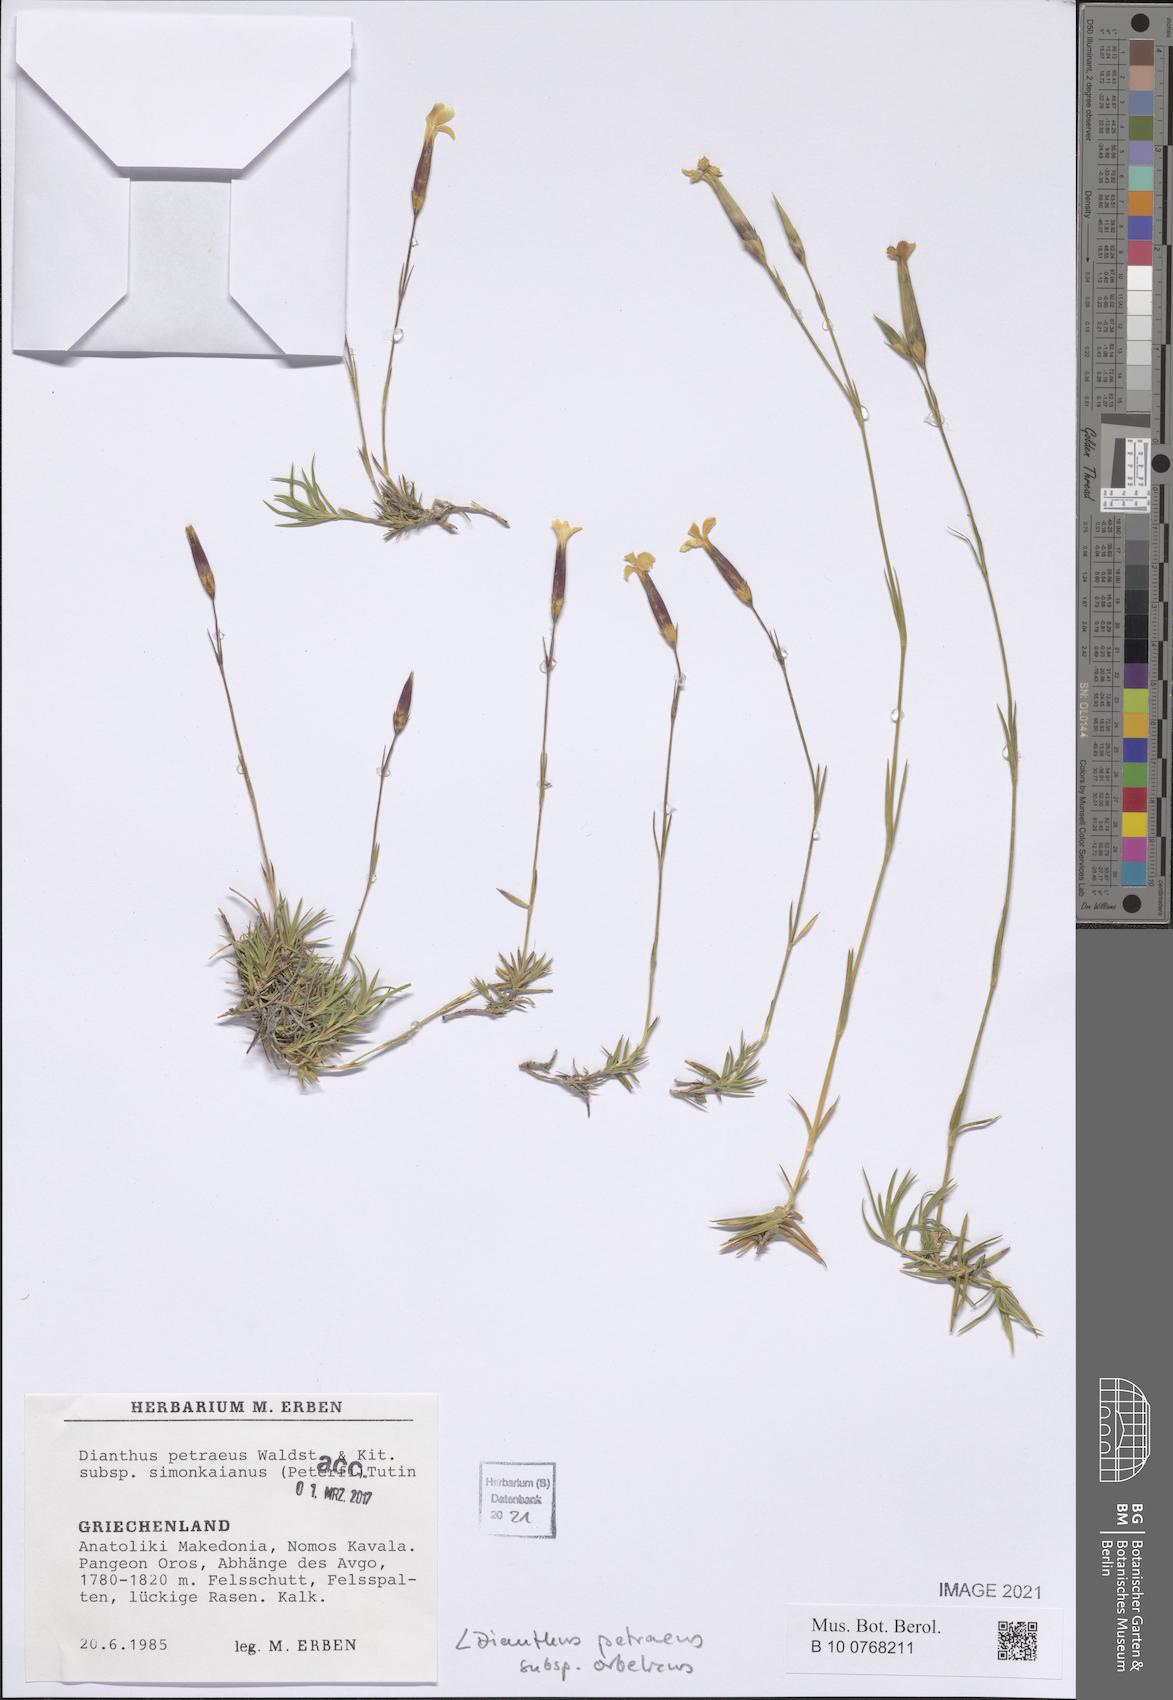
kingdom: Plantae
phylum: Tracheophyta
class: Magnoliopsida
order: Caryophyllales
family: Caryophyllaceae
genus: Dianthus
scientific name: Dianthus petraeus
